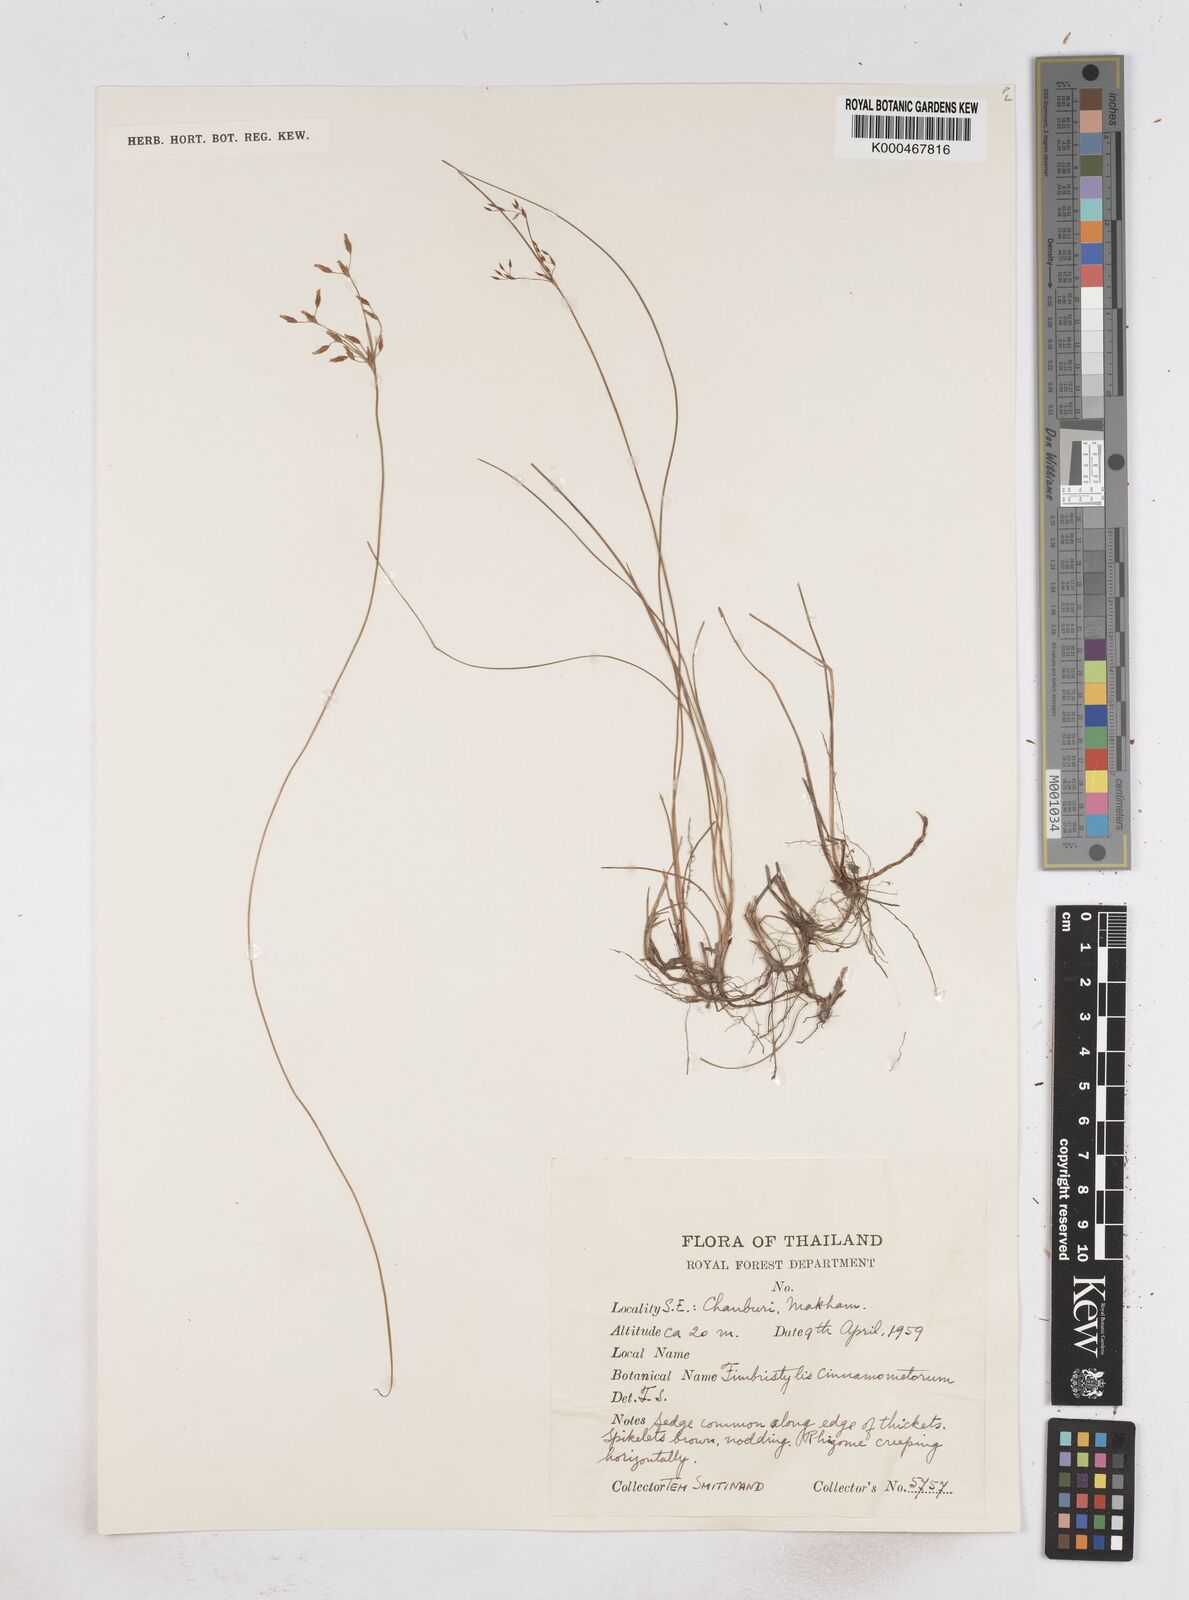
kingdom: Plantae
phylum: Tracheophyta
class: Liliopsida
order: Poales
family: Cyperaceae
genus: Fimbristylis
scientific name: Fimbristylis cinnamometorum
